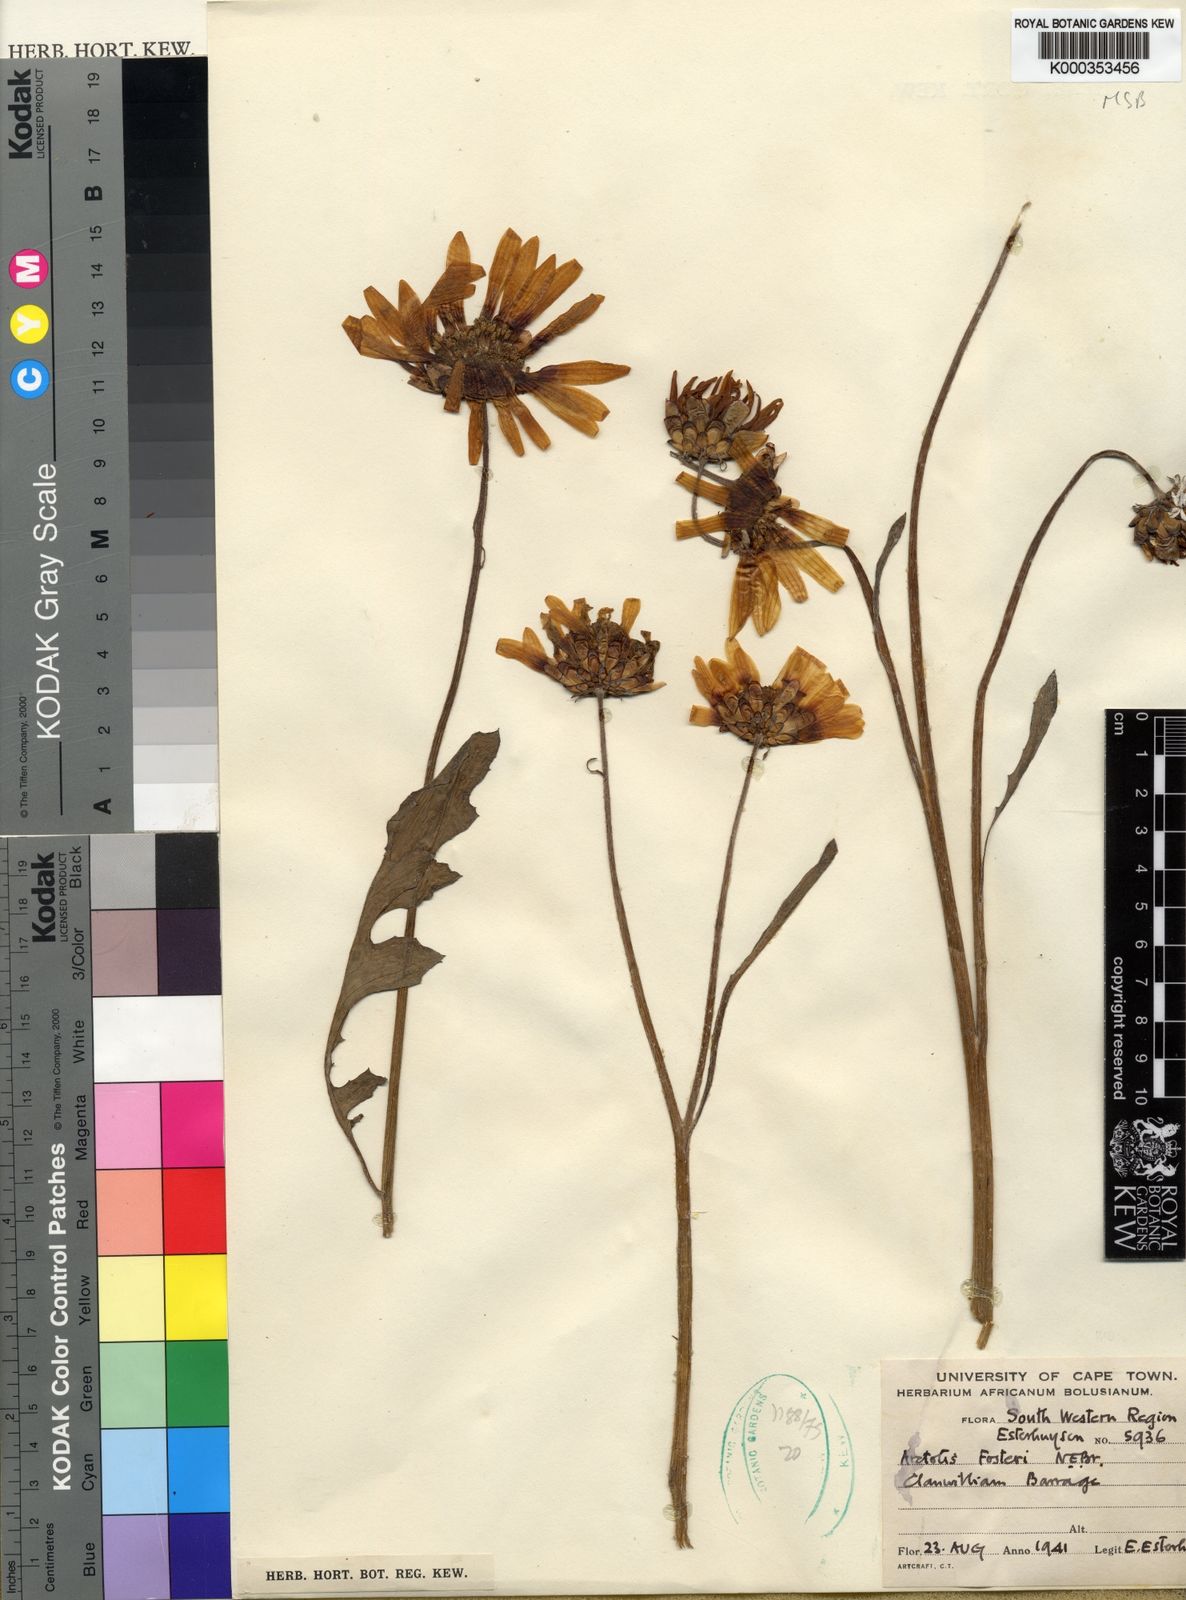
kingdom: Plantae
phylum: Tracheophyta
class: Magnoliopsida
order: Asterales
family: Asteraceae
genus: Arctotis
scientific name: Arctotis fosteri
